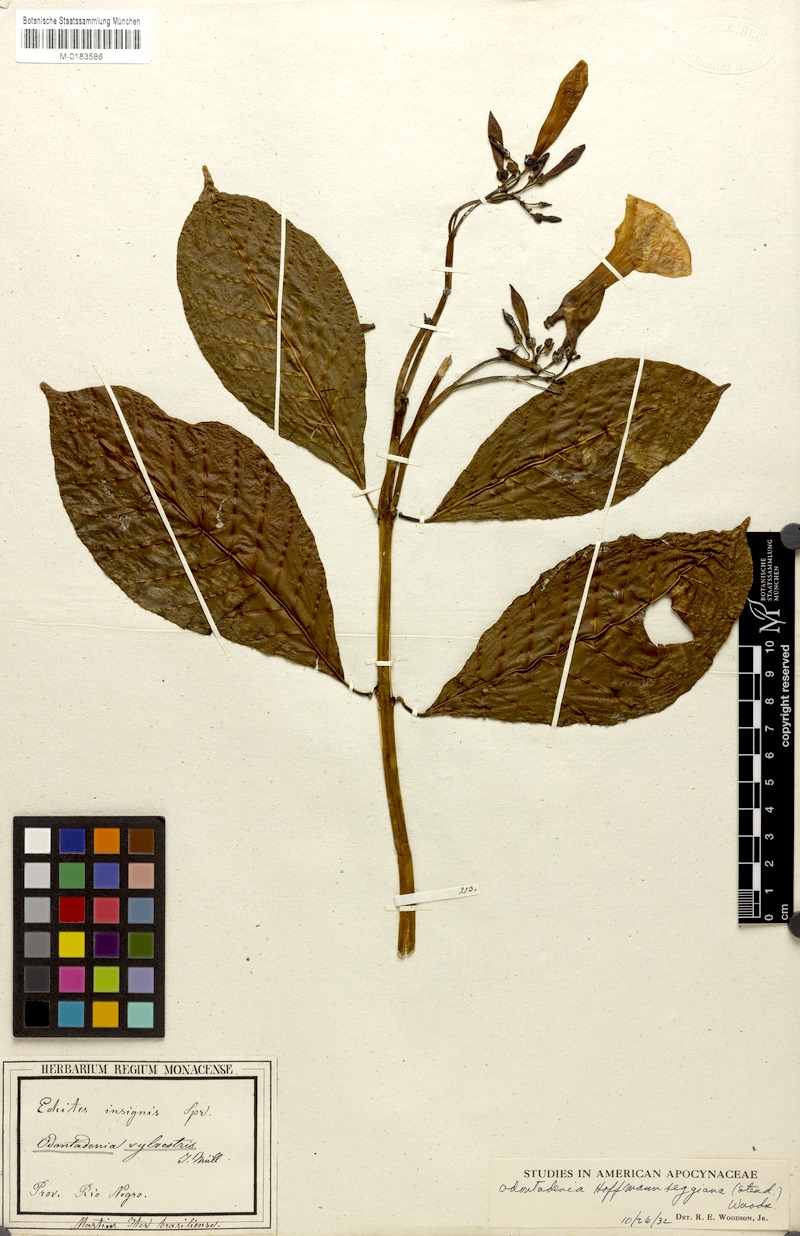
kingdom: Plantae
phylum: Tracheophyta
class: Magnoliopsida
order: Gentianales
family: Apocynaceae
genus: Odontadenia
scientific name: Odontadenia semidigyna
